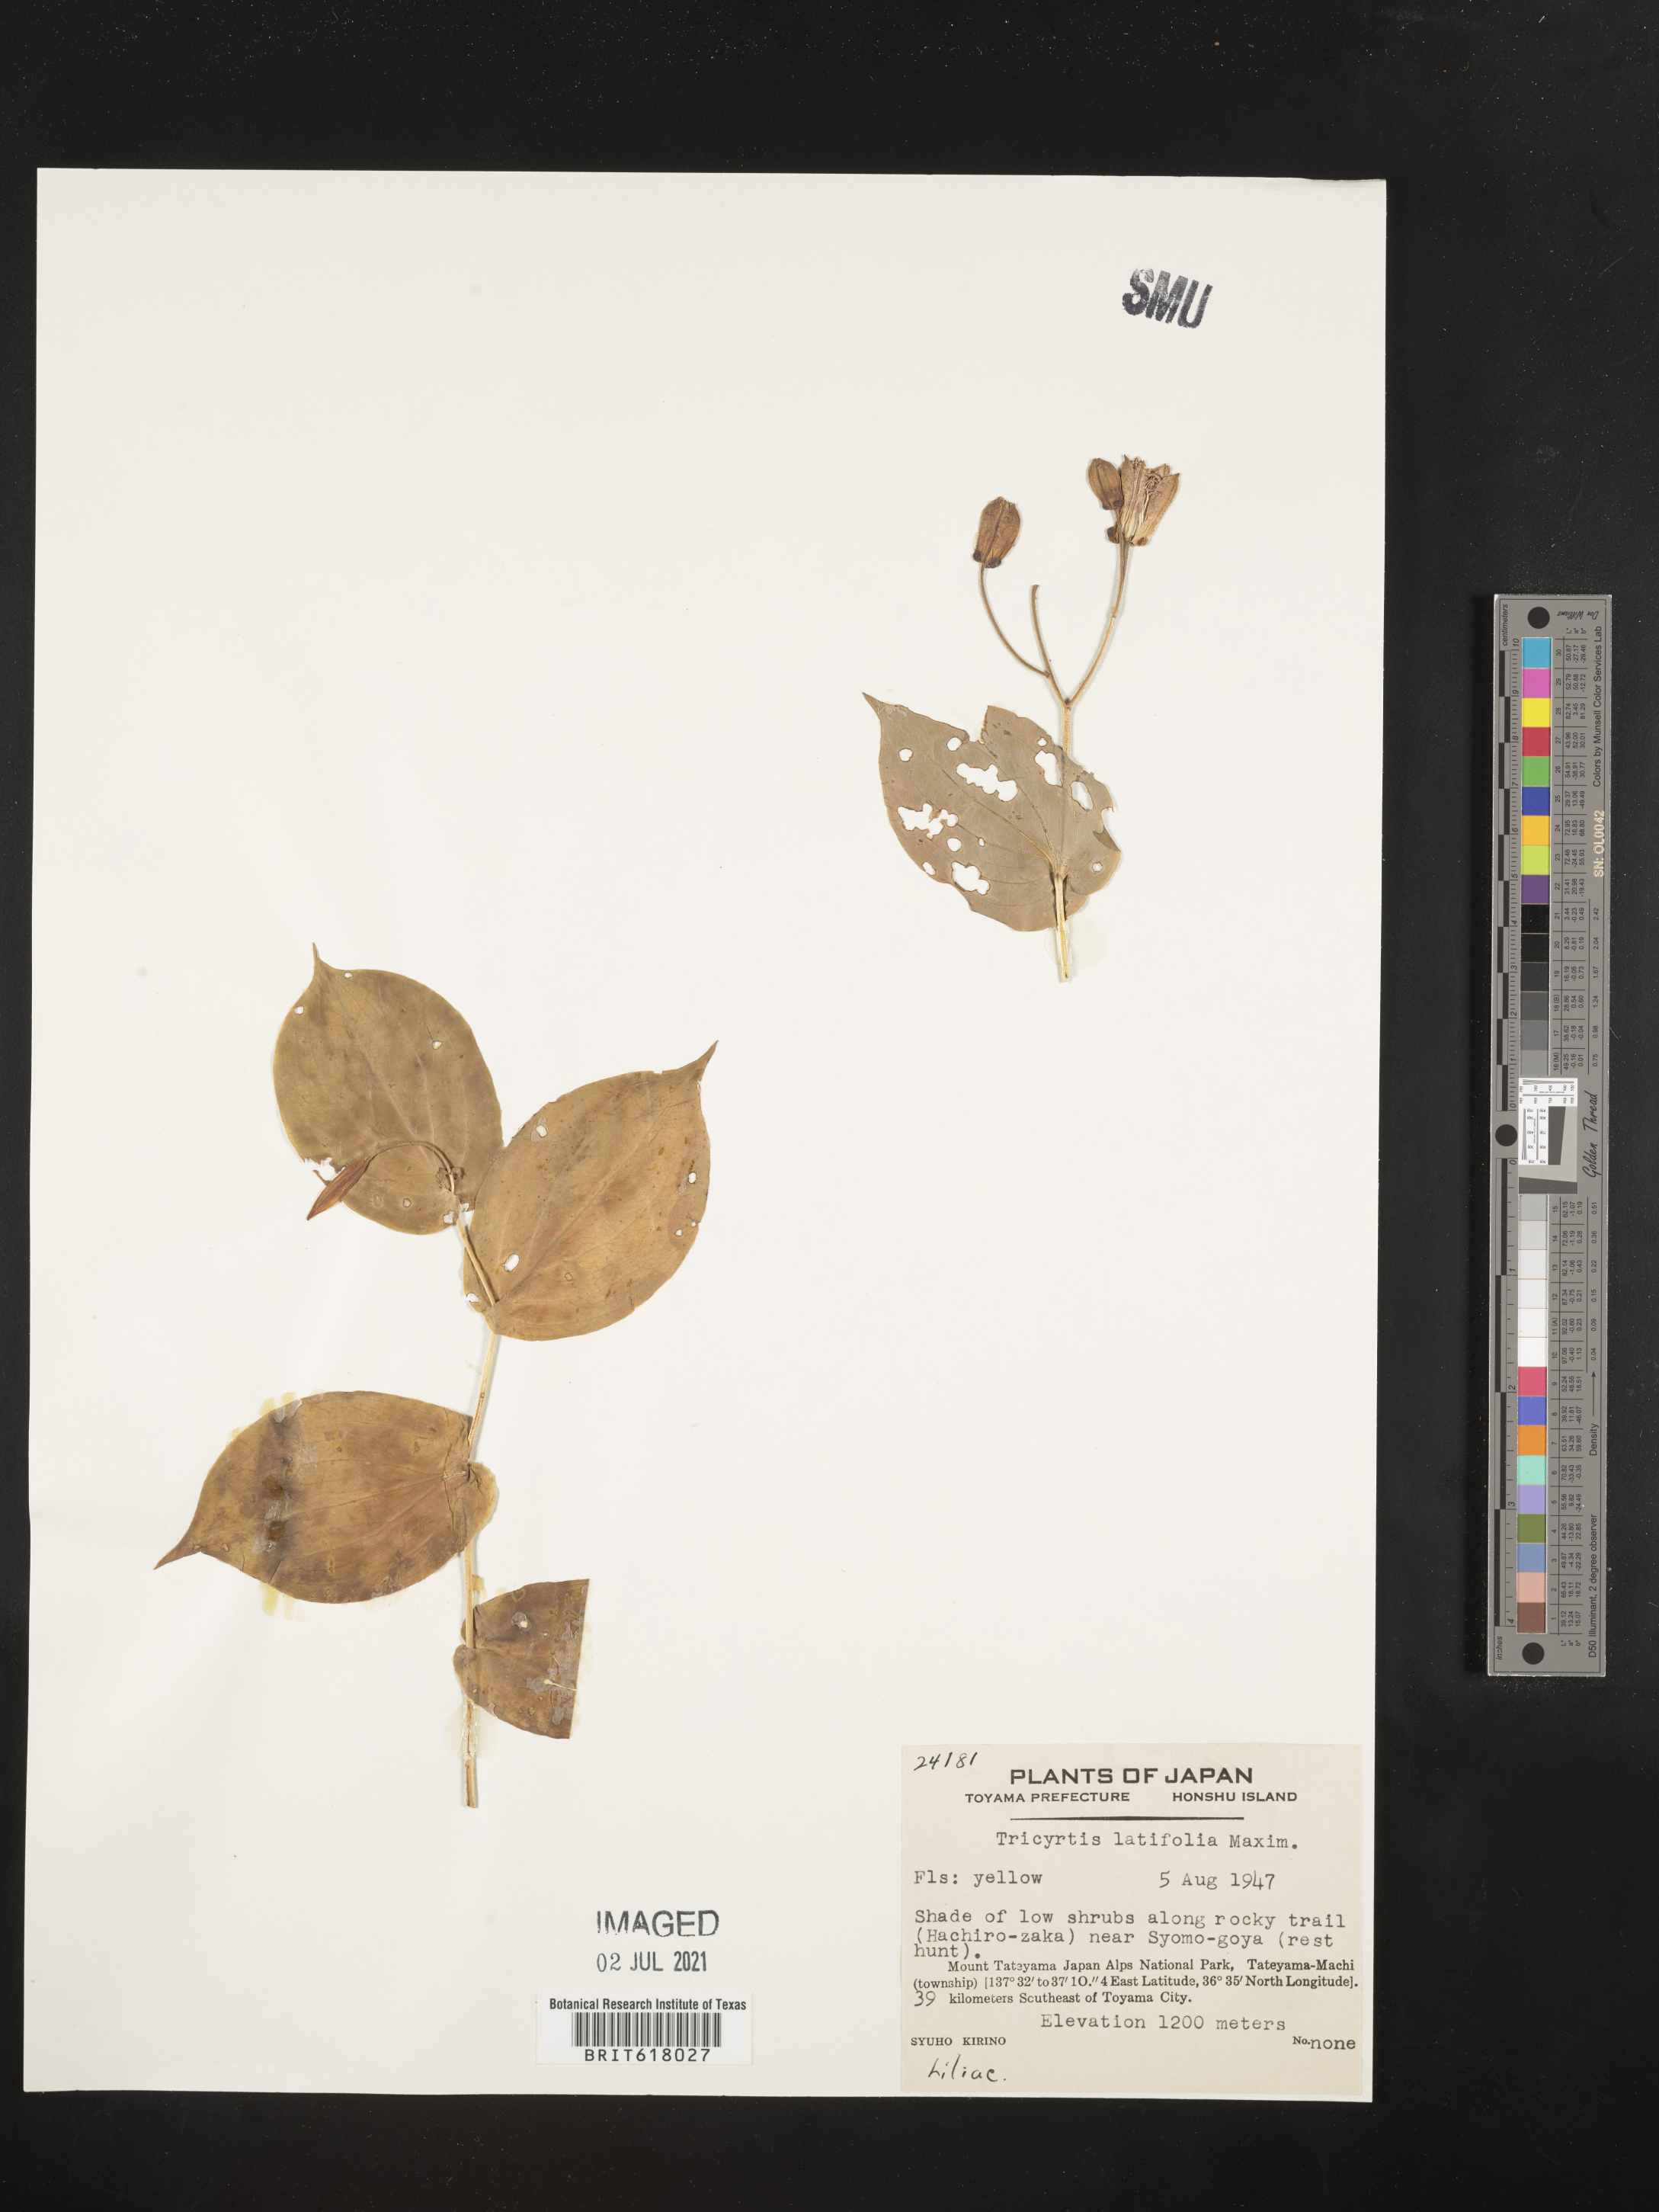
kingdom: Plantae
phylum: Tracheophyta
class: Liliopsida
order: Liliales
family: Liliaceae
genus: Tricyrtis
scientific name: Tricyrtis latifolia
